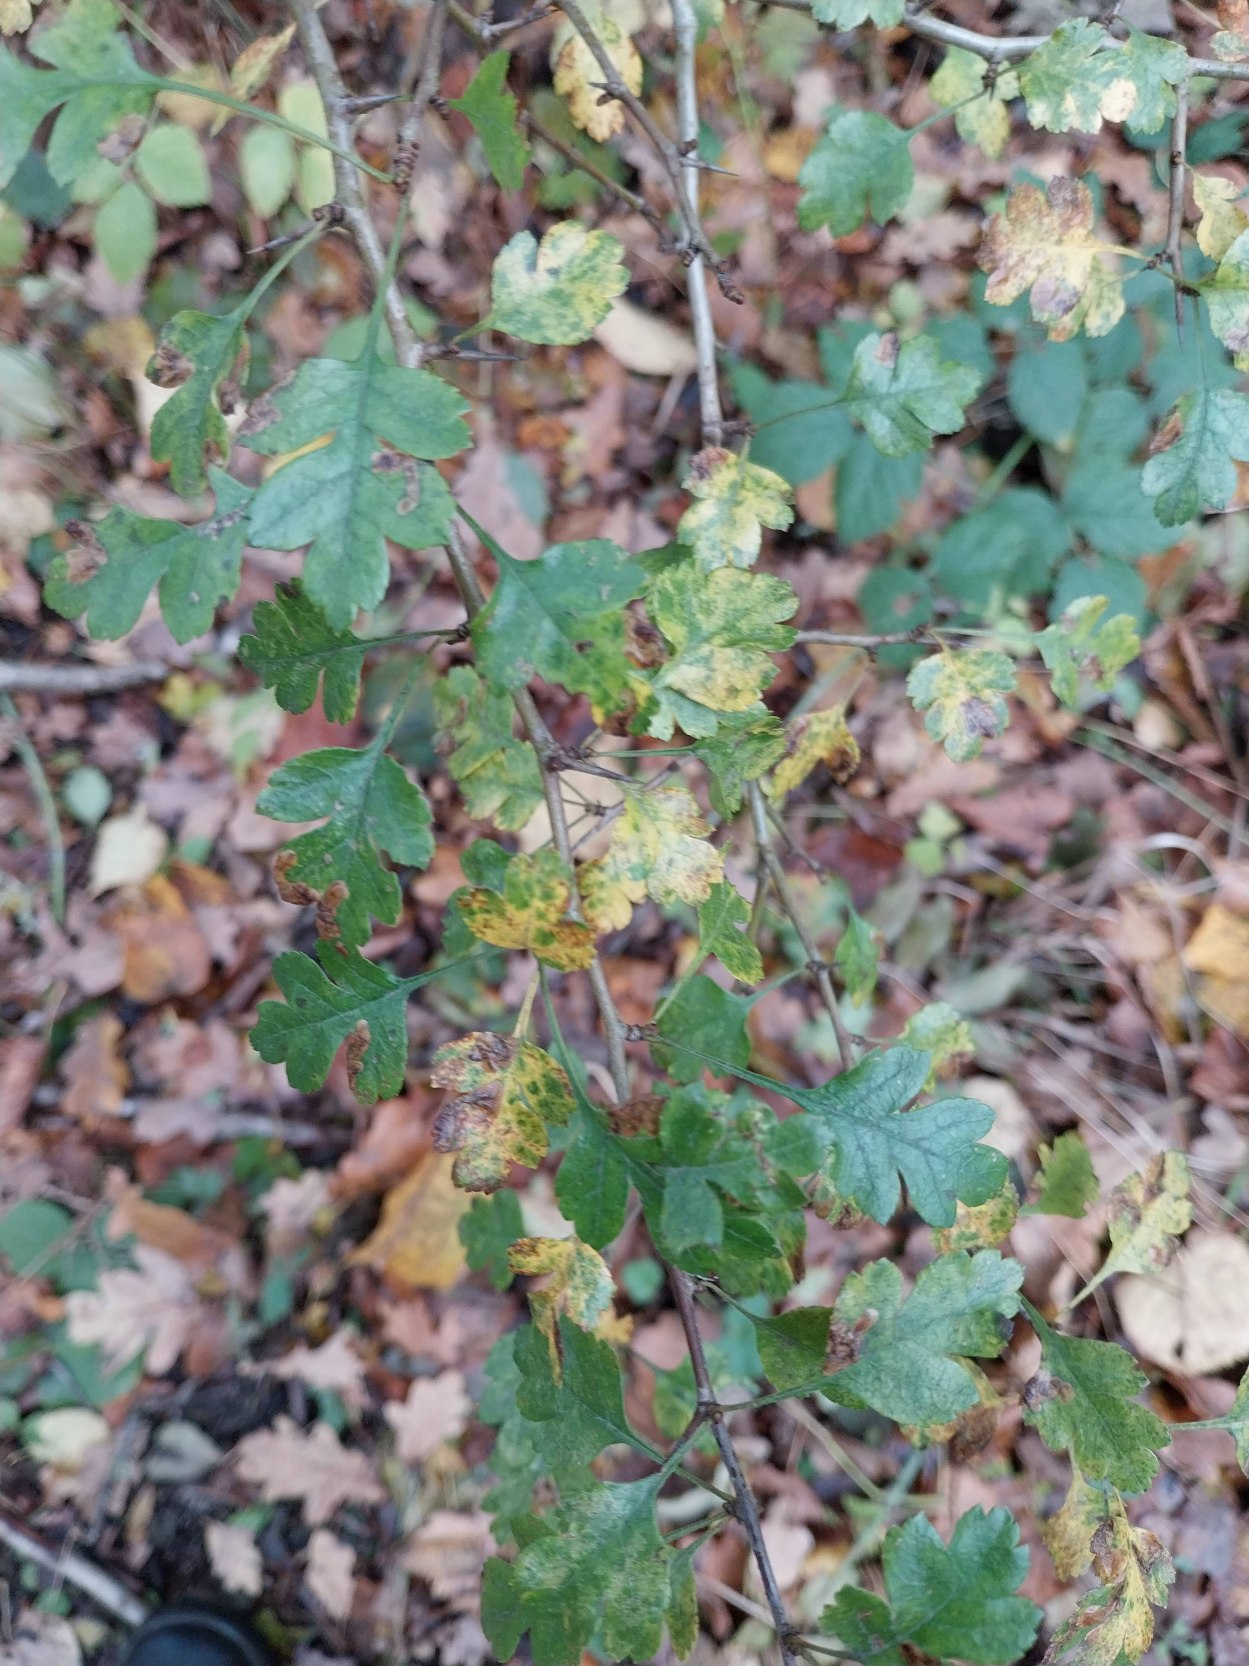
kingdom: Plantae
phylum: Tracheophyta
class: Magnoliopsida
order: Rosales
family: Rosaceae
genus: Crataegus
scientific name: Crataegus monogyna
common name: Engriflet hvidtjørn
